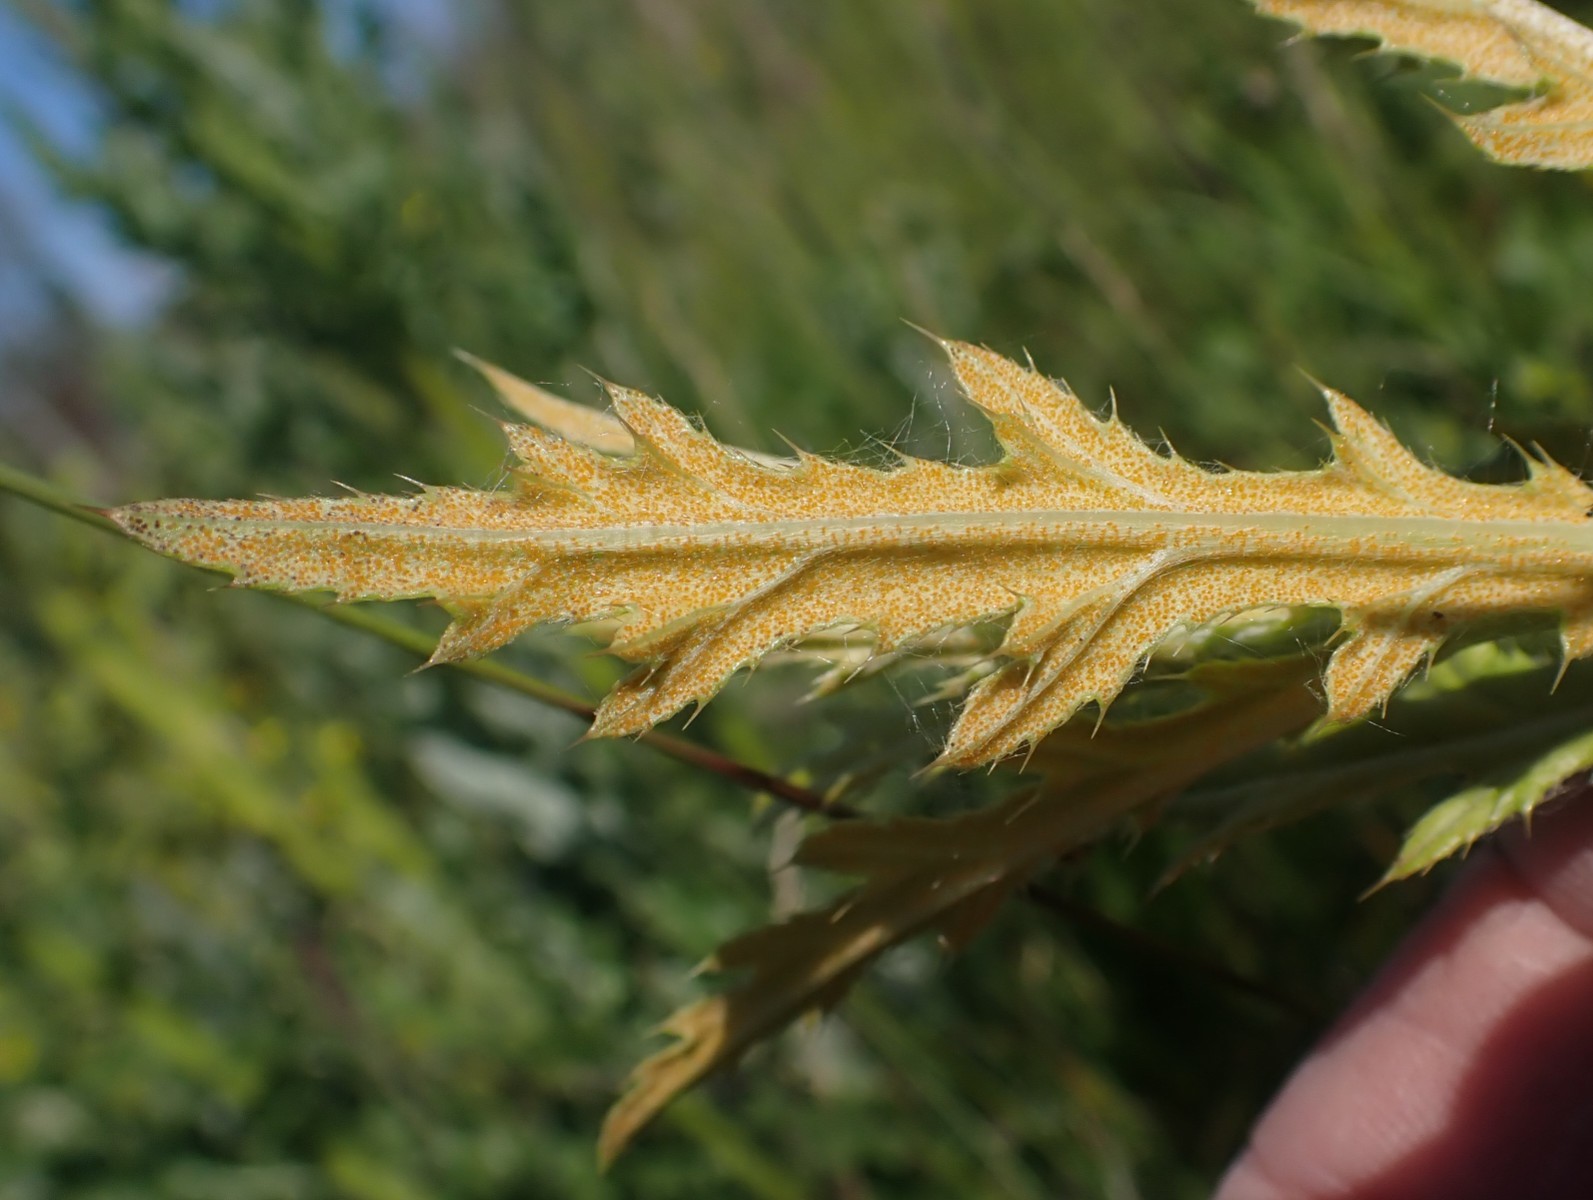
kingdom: Fungi
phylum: Basidiomycota
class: Pucciniomycetes
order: Pucciniales
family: Pucciniaceae
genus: Puccinia
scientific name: Puccinia suaveolens
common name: tidsel-tvecellerust
